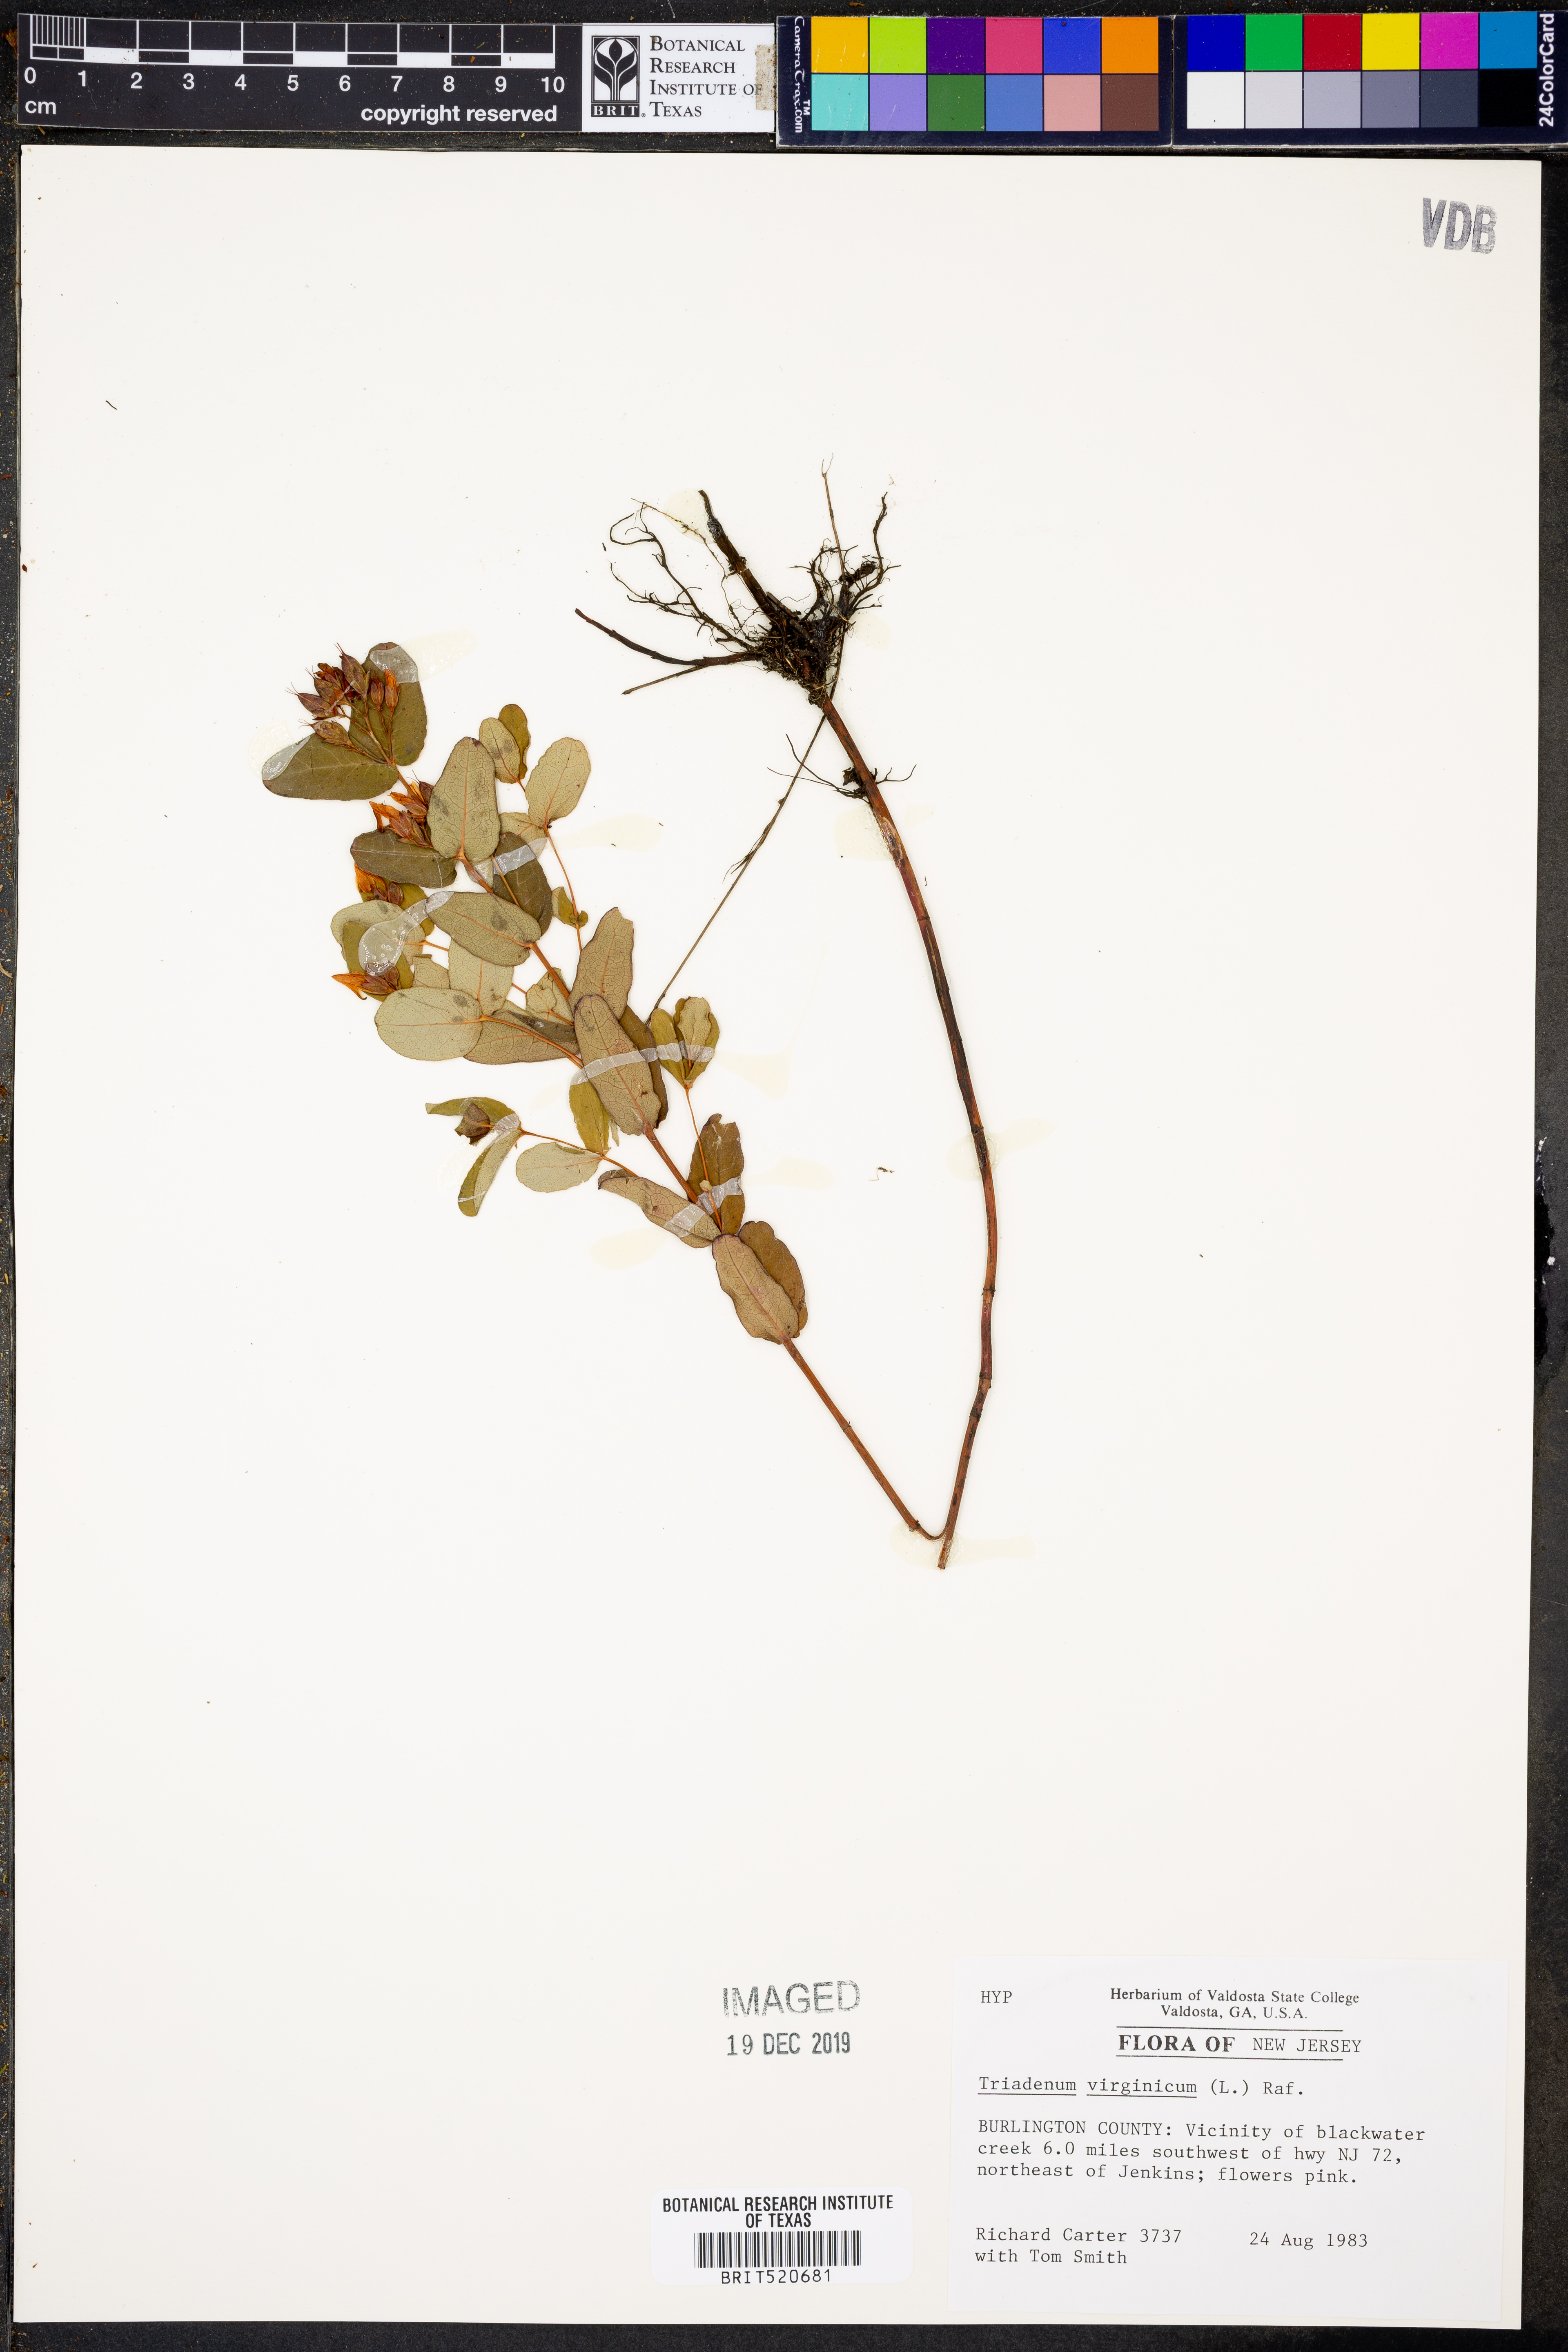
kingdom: Plantae
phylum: Tracheophyta
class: Magnoliopsida
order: Malpighiales
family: Hypericaceae
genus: Triadenum
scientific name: Triadenum virginicum
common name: Marsh st. john's-wort
